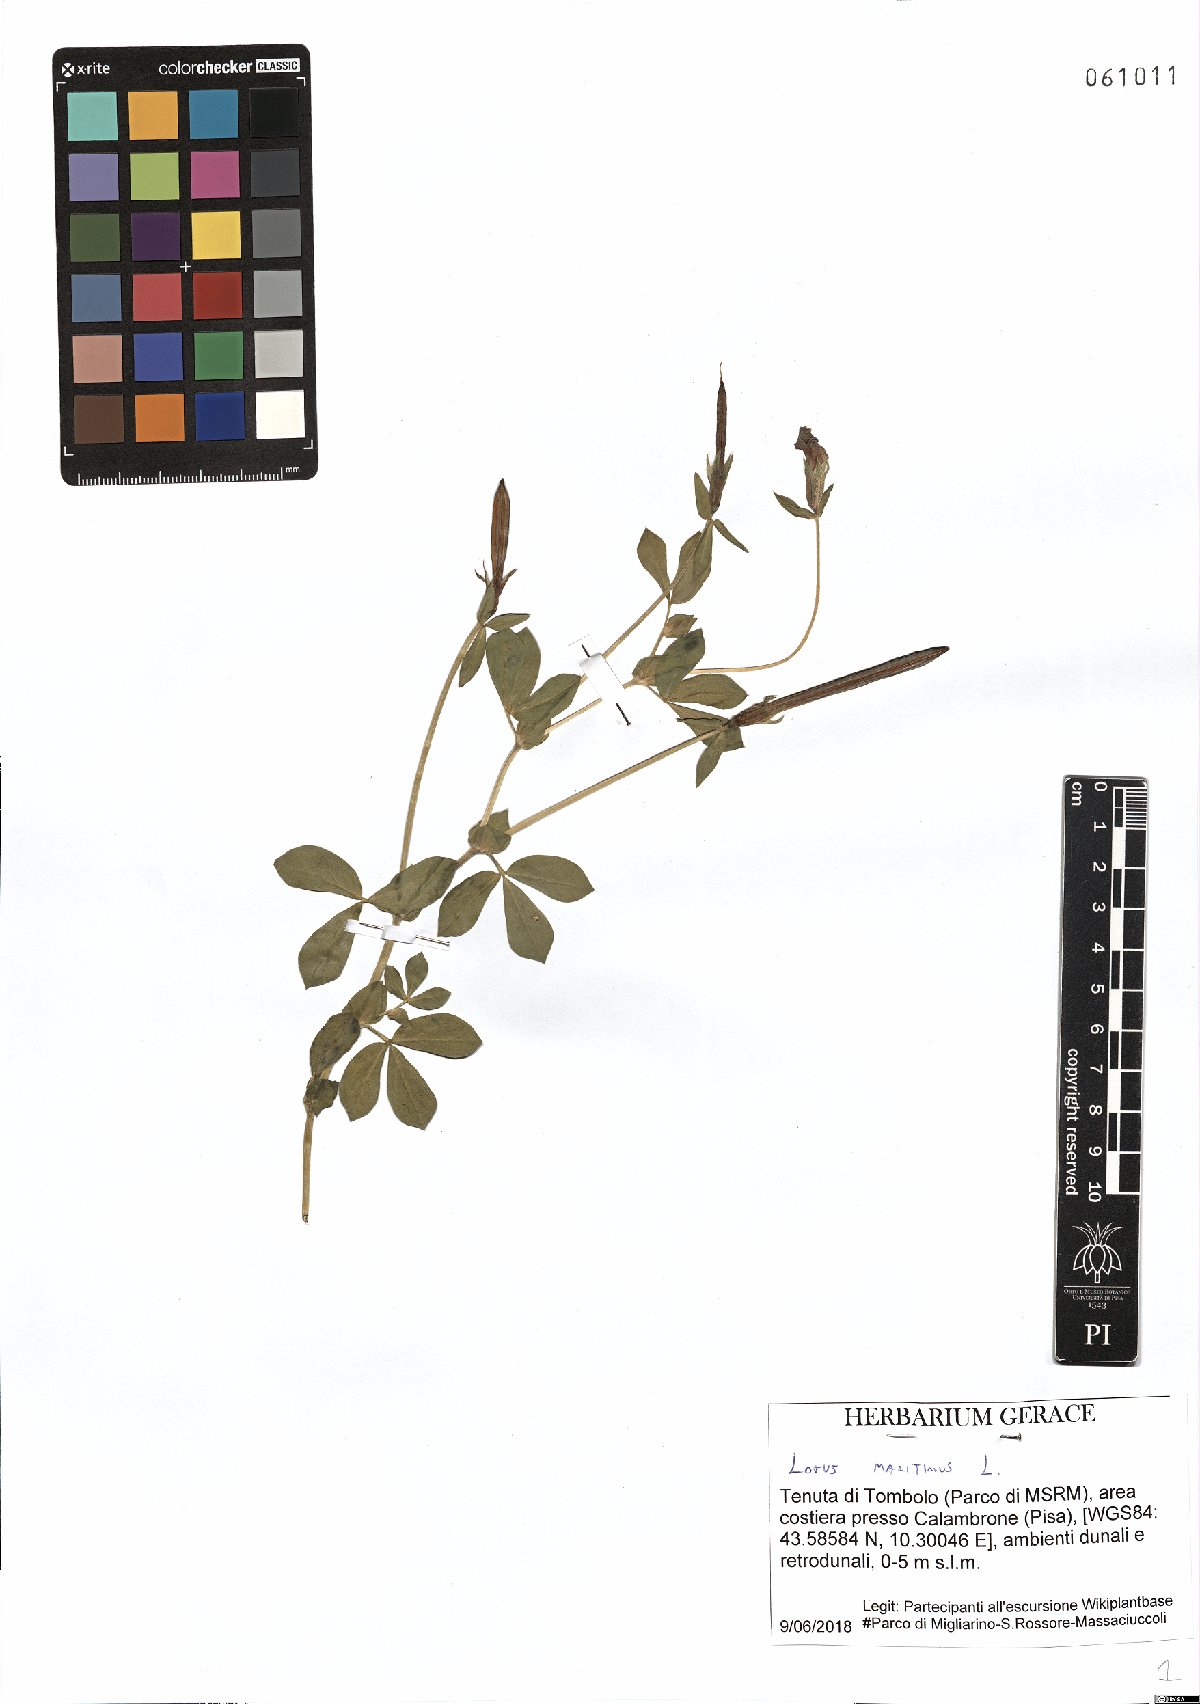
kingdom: Plantae
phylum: Tracheophyta
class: Magnoliopsida
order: Fabales
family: Fabaceae
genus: Lotus
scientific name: Lotus maritimus
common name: Dragon's-teeth
